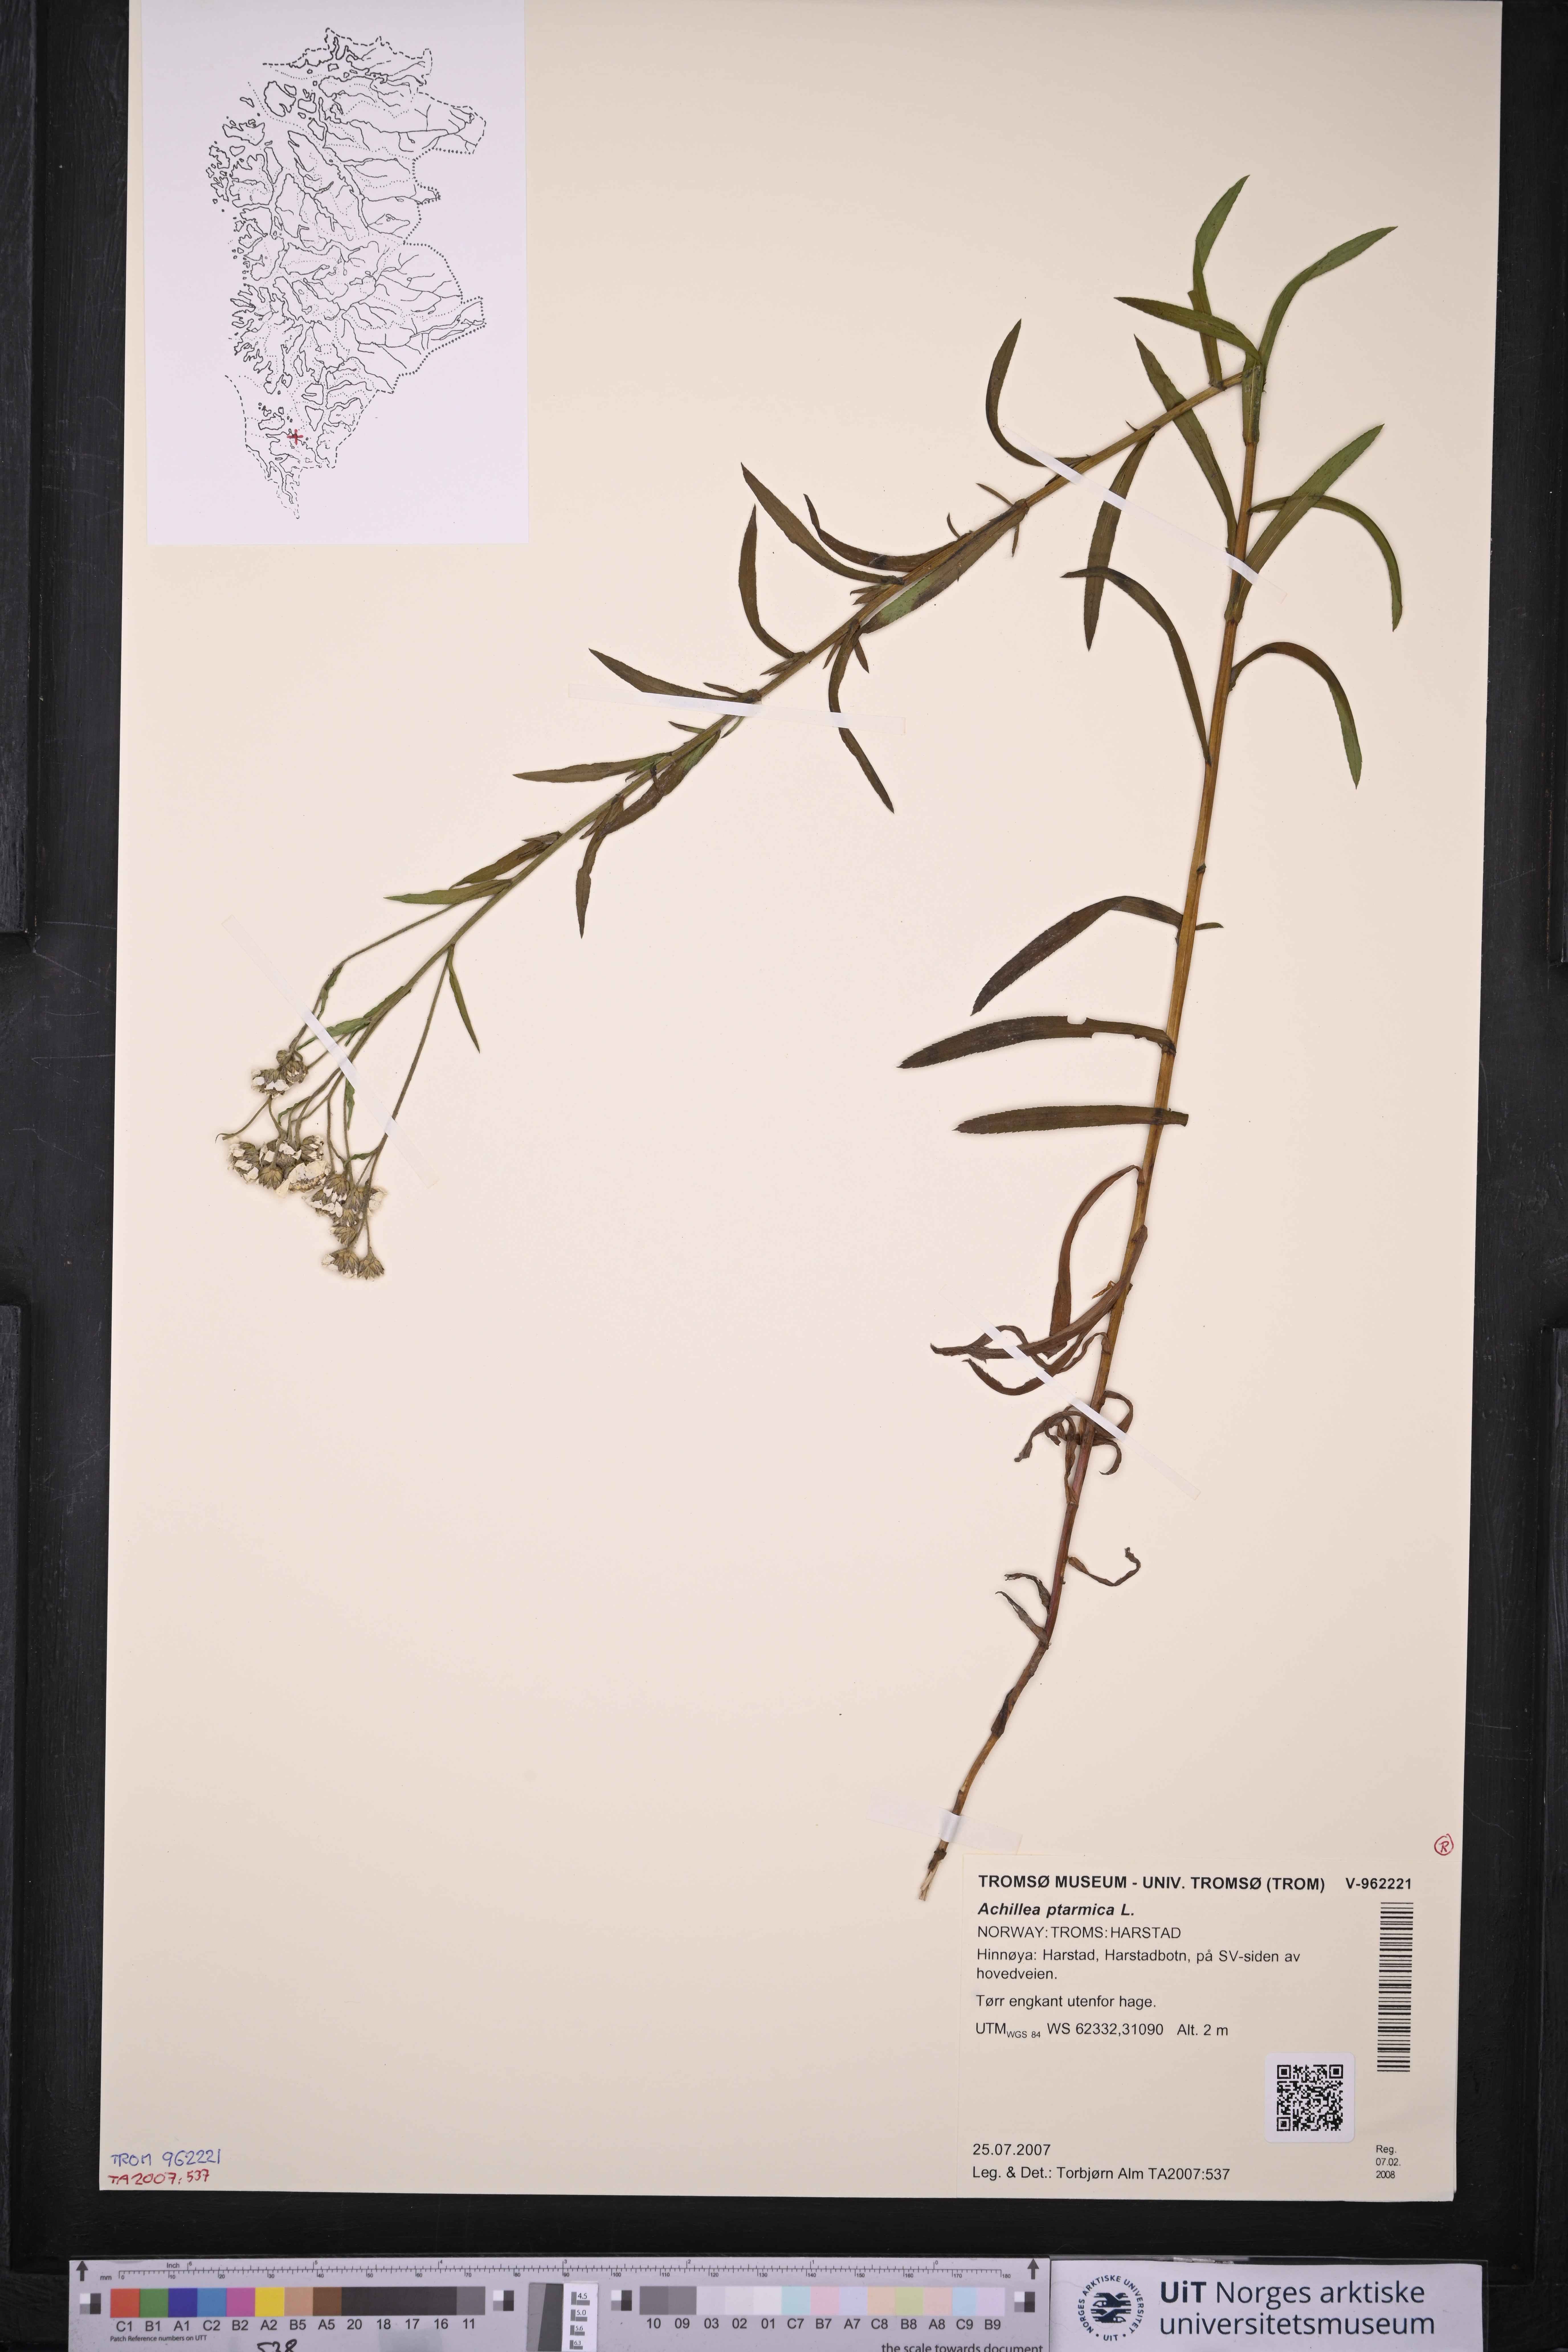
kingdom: Plantae
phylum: Tracheophyta
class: Magnoliopsida
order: Asterales
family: Asteraceae
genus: Achillea
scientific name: Achillea ptarmica
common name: Sneezeweed
